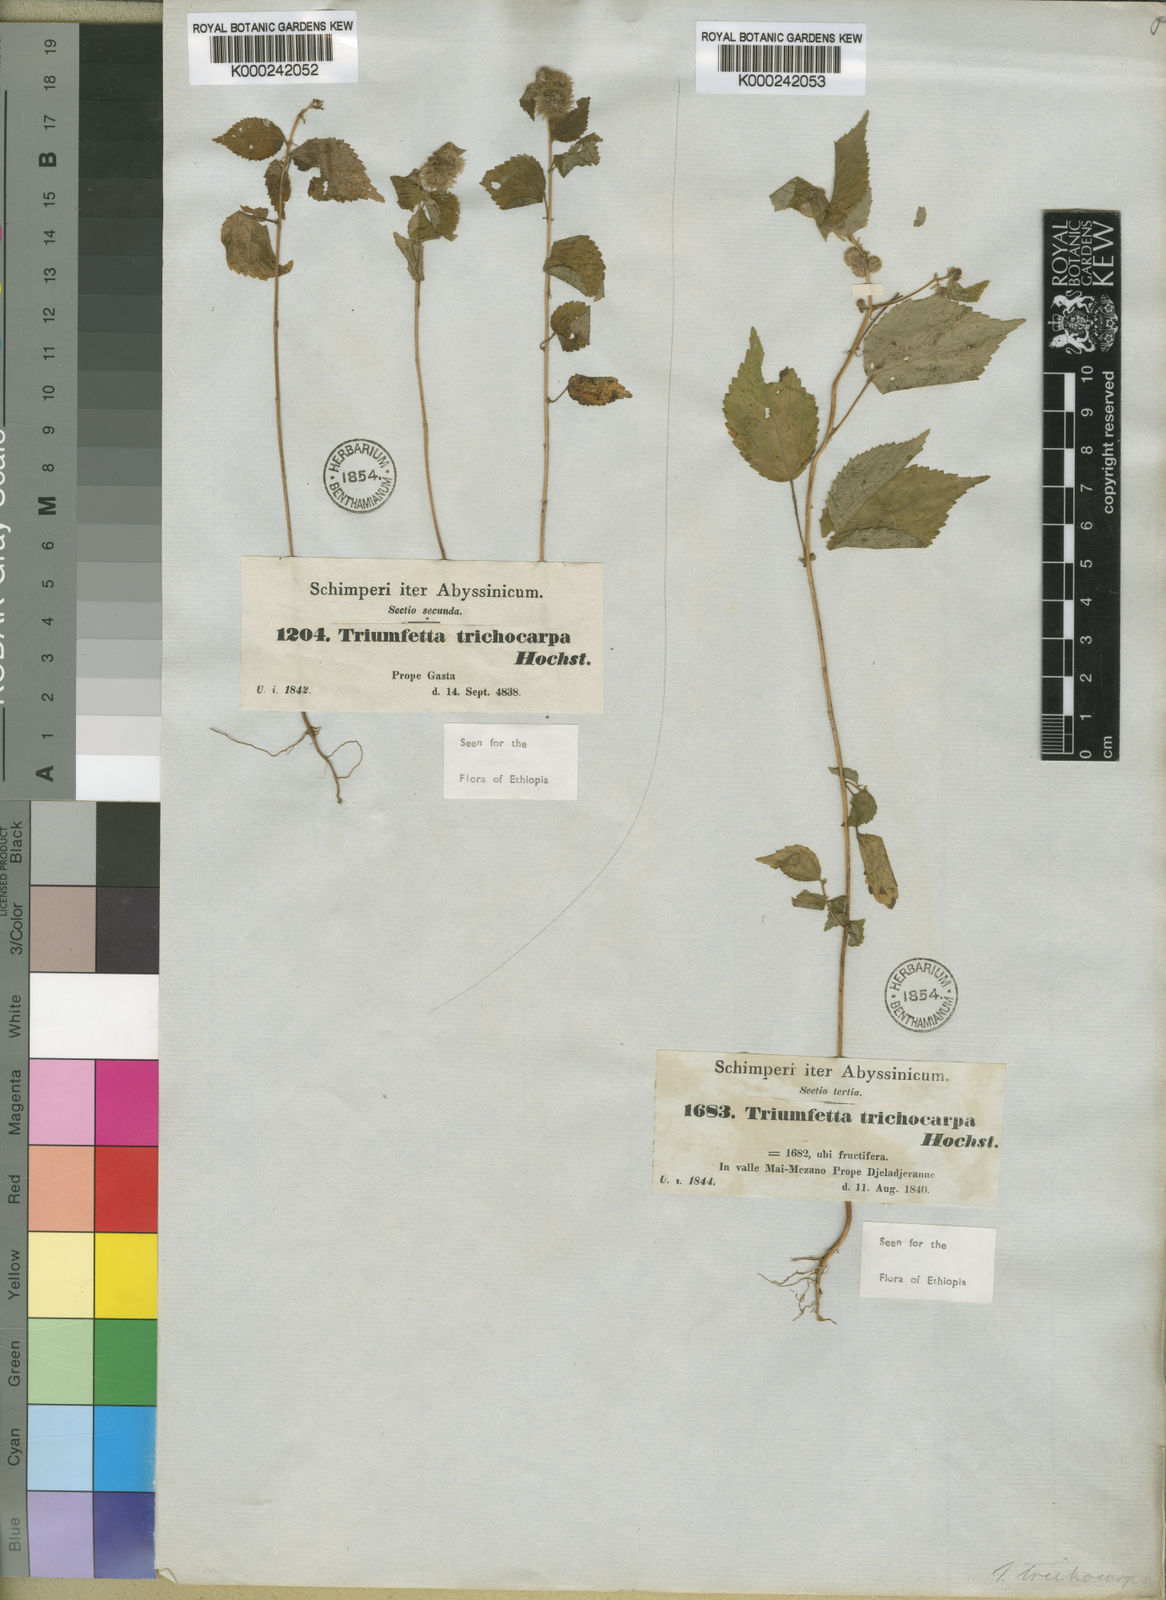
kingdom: Plantae
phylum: Tracheophyta
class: Magnoliopsida
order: Malvales
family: Malvaceae
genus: Triumfetta
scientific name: Triumfetta trichocarpa
